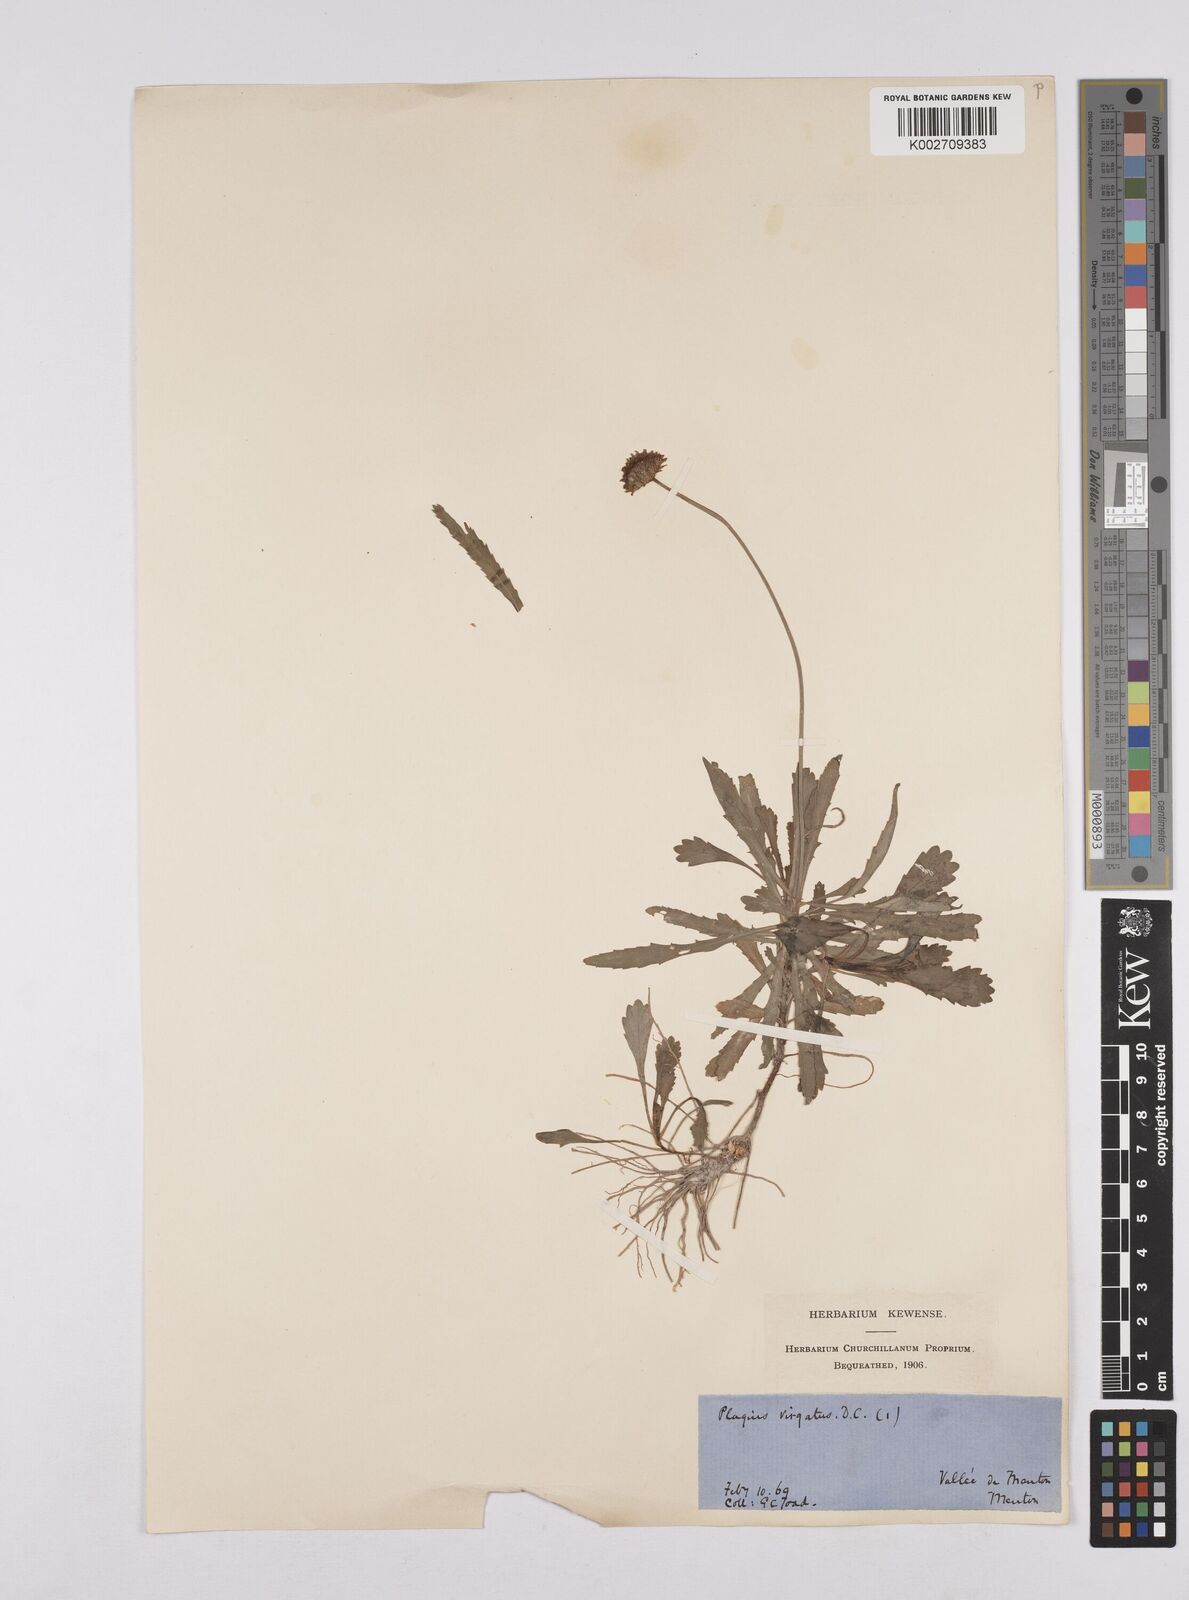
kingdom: Plantae
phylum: Tracheophyta
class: Magnoliopsida
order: Asterales
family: Asteraceae
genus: Leucanthemum
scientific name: Leucanthemum vulgare
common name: Oxeye daisy
